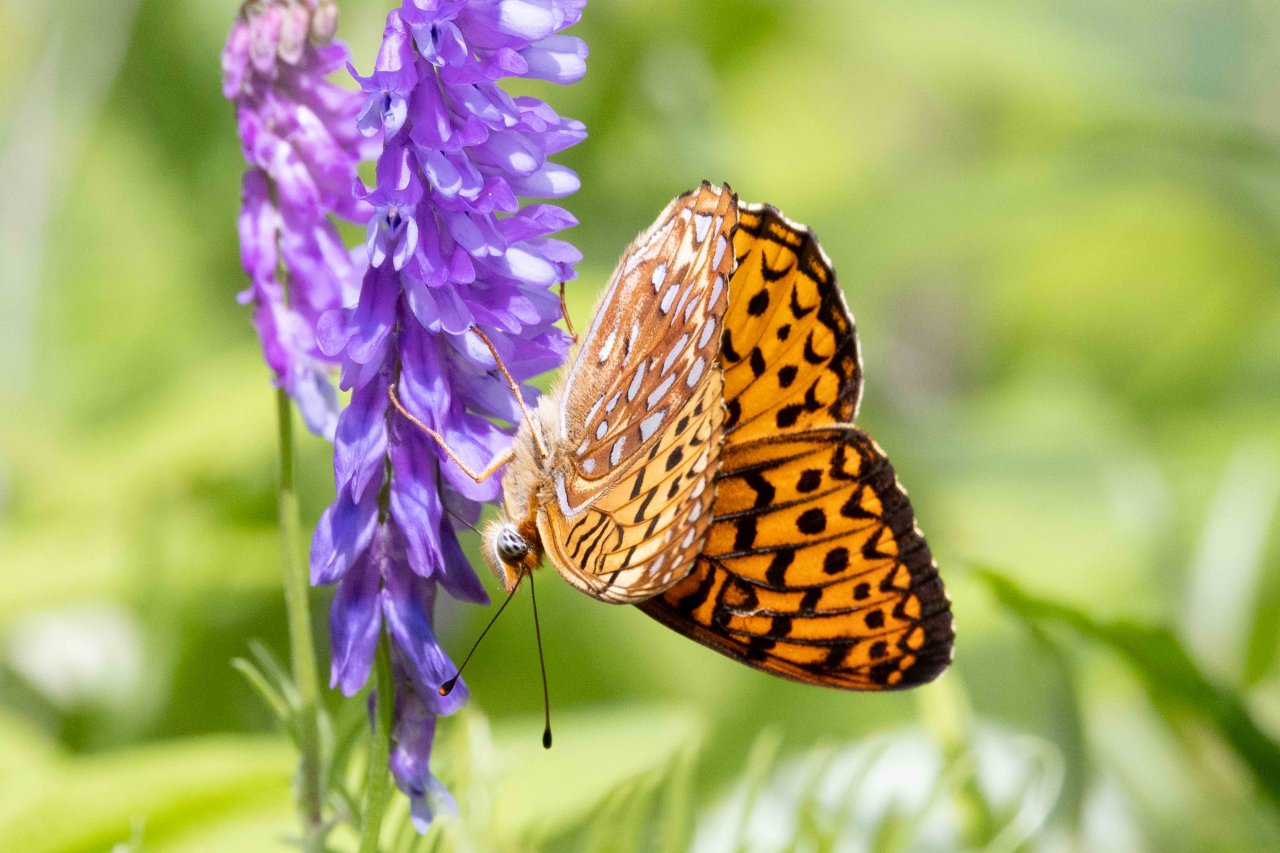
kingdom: Animalia
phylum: Arthropoda
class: Insecta
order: Lepidoptera
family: Nymphalidae
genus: Speyeria
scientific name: Speyeria atlantis
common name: Atlantis Fritillary
